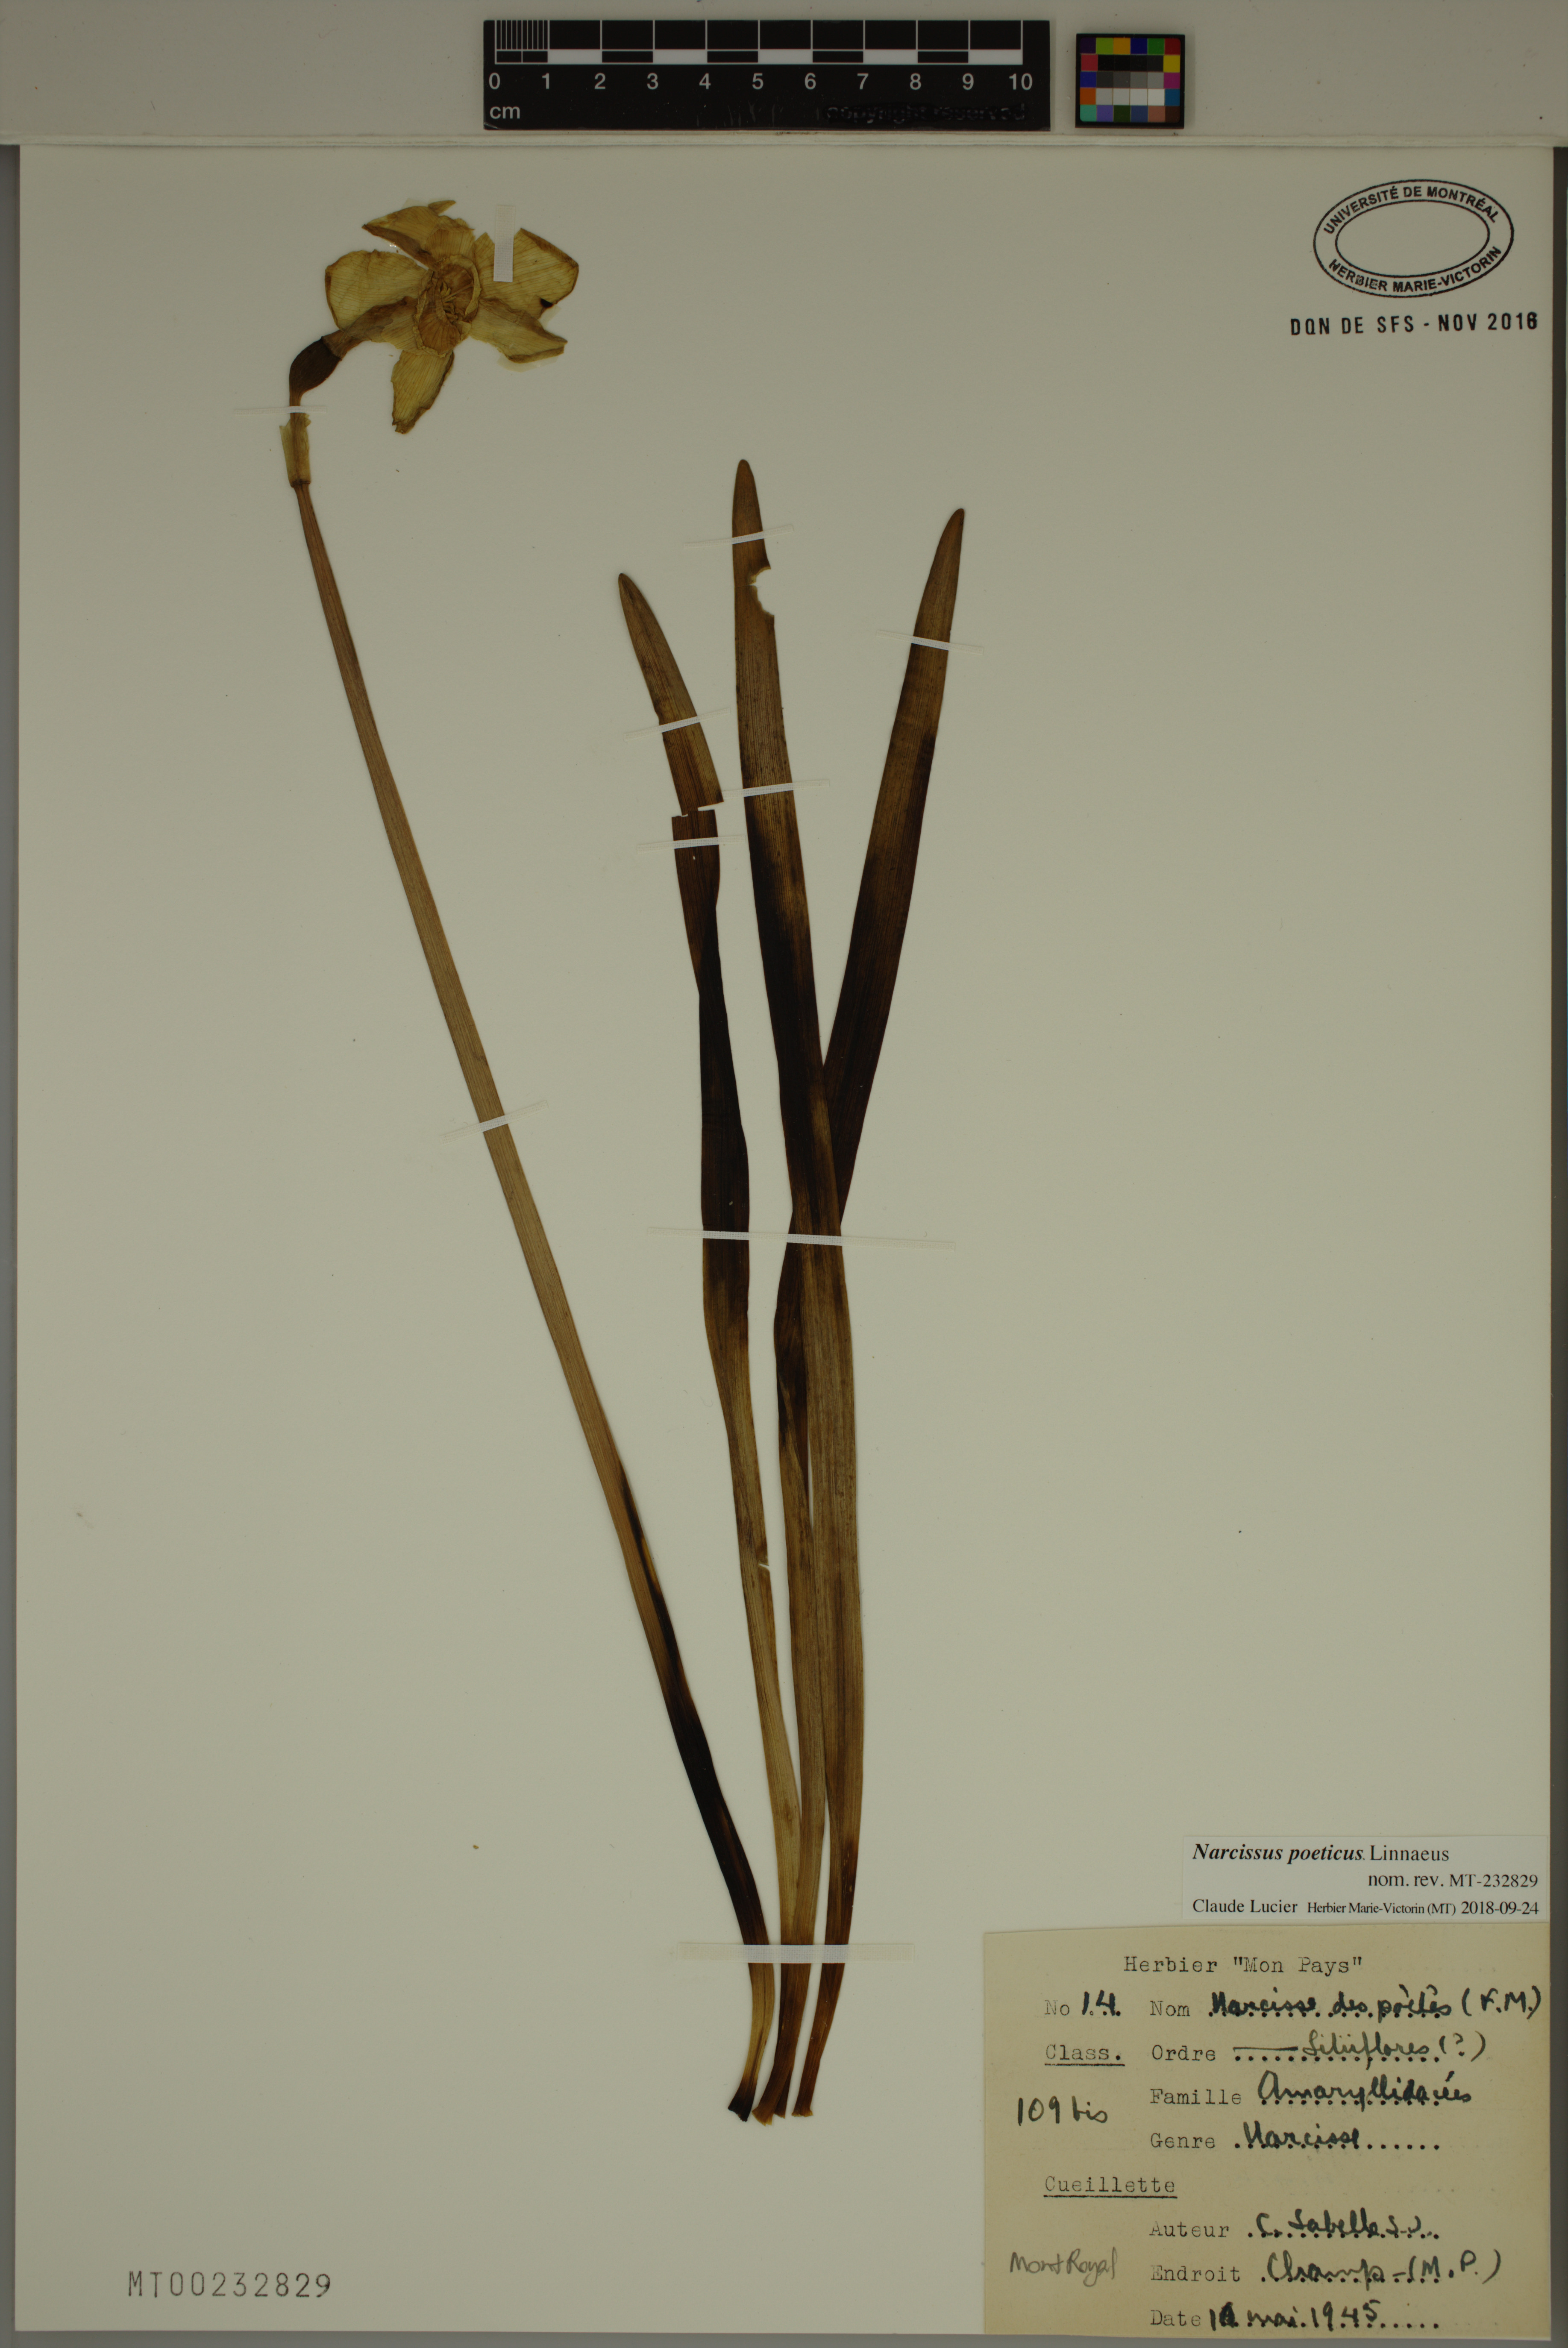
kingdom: Plantae
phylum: Tracheophyta
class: Liliopsida
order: Asparagales
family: Amaryllidaceae
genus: Narcissus
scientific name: Narcissus poeticus
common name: Pheasant's-eye daffodil
